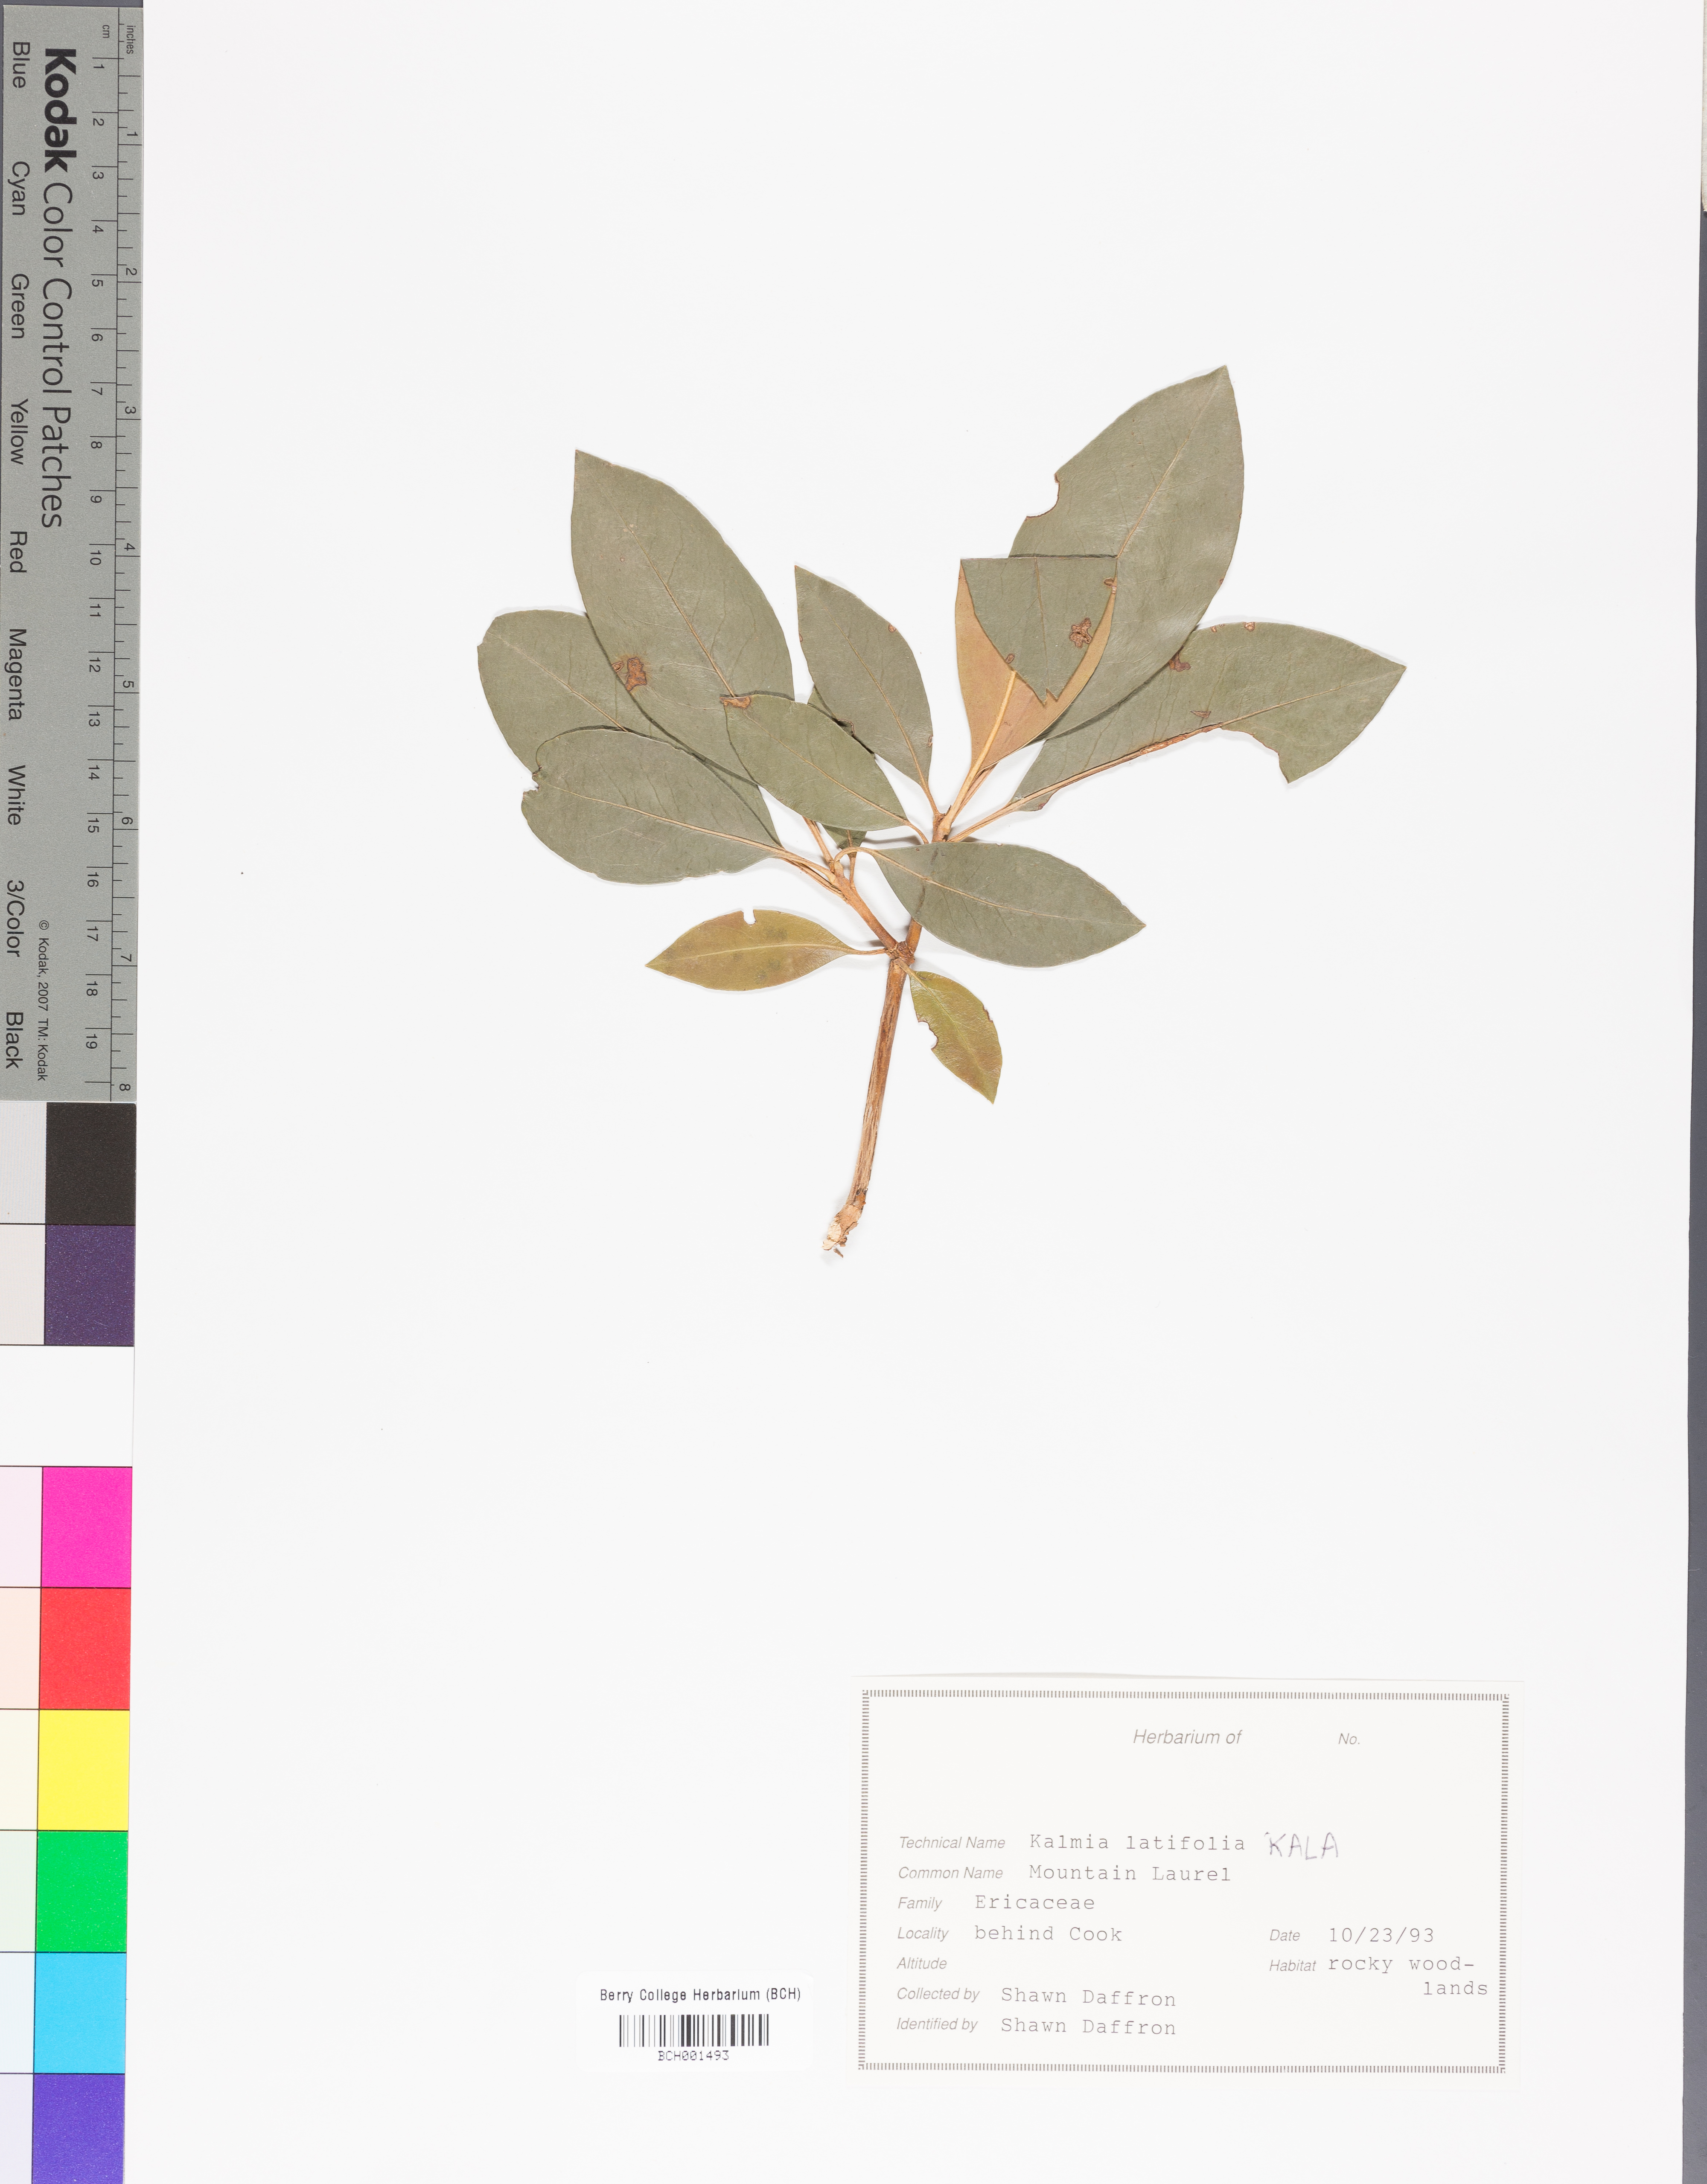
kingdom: Plantae
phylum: Tracheophyta
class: Magnoliopsida
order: Ericales
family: Ericaceae
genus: Kalmia
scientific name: Kalmia latifolia
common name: Mountain-laurel
